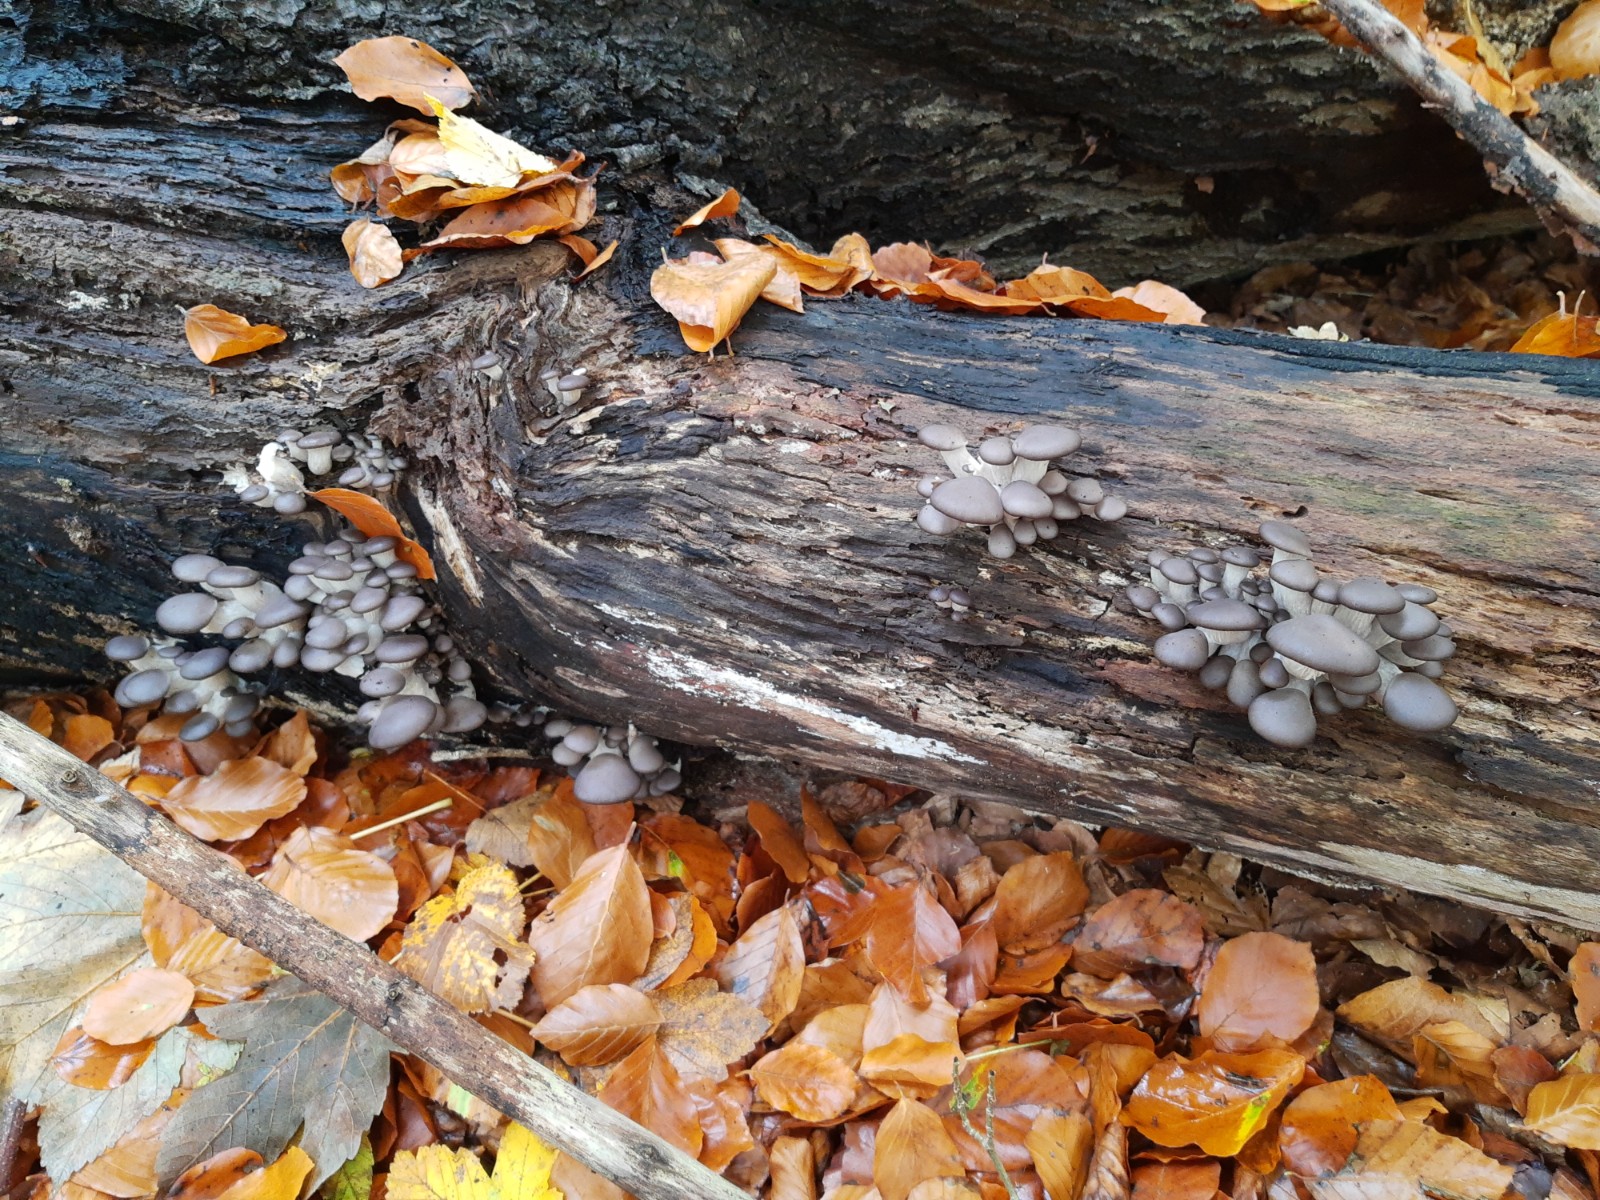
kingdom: Fungi
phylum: Basidiomycota
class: Agaricomycetes
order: Agaricales
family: Pleurotaceae
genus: Pleurotus
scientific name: Pleurotus ostreatus
